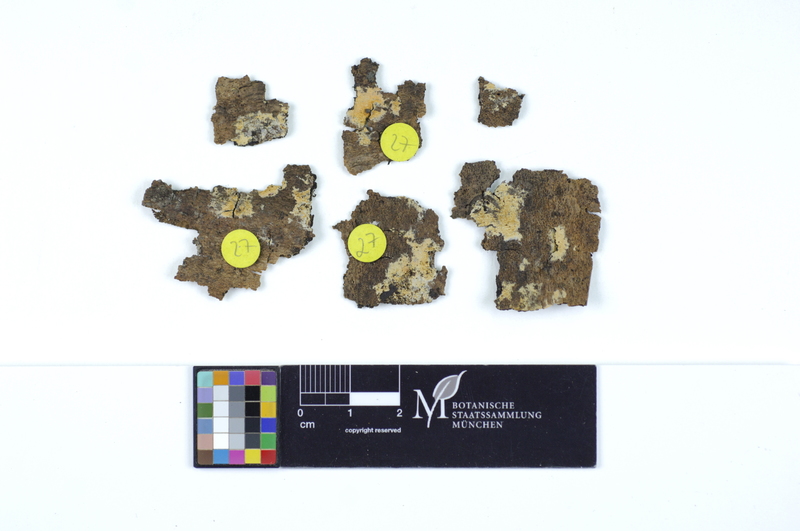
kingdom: Plantae
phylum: Tracheophyta
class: Magnoliopsida
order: Lamiales
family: Oleaceae
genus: Fraxinus
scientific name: Fraxinus
